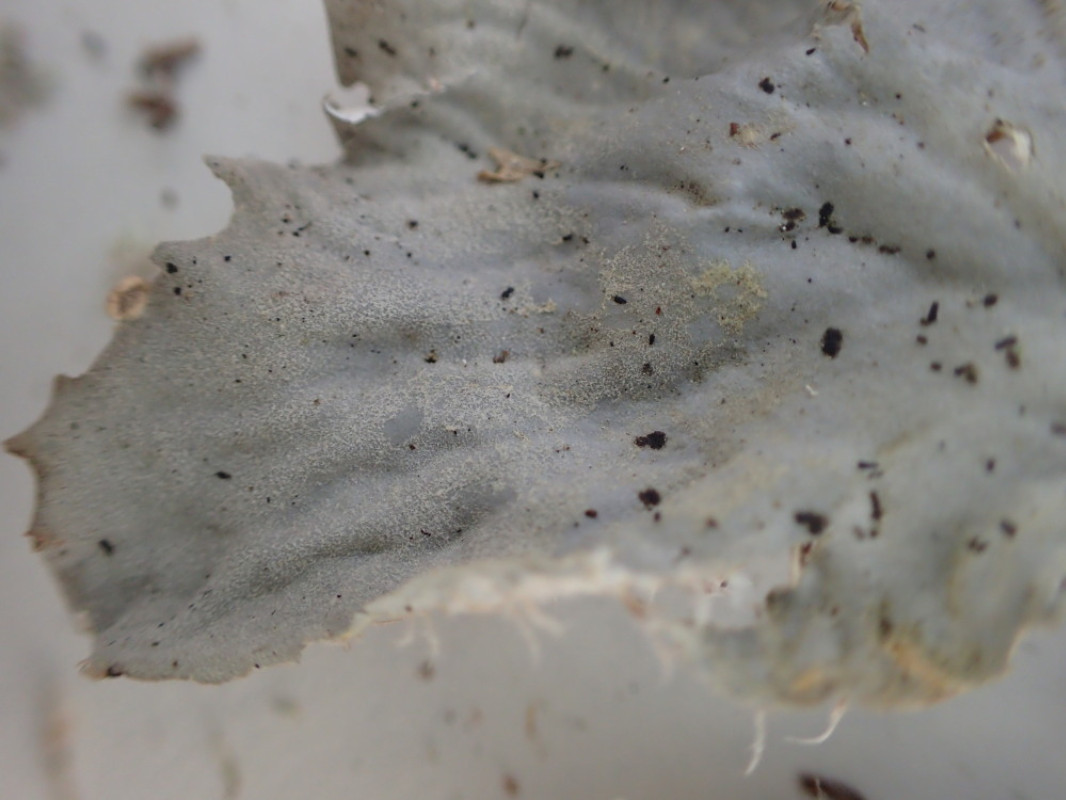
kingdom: Fungi
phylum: Ascomycota
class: Lecanoromycetes
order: Peltigerales
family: Peltigeraceae
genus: Peltigera
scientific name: Peltigera membranacea
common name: tynd skjoldlav
